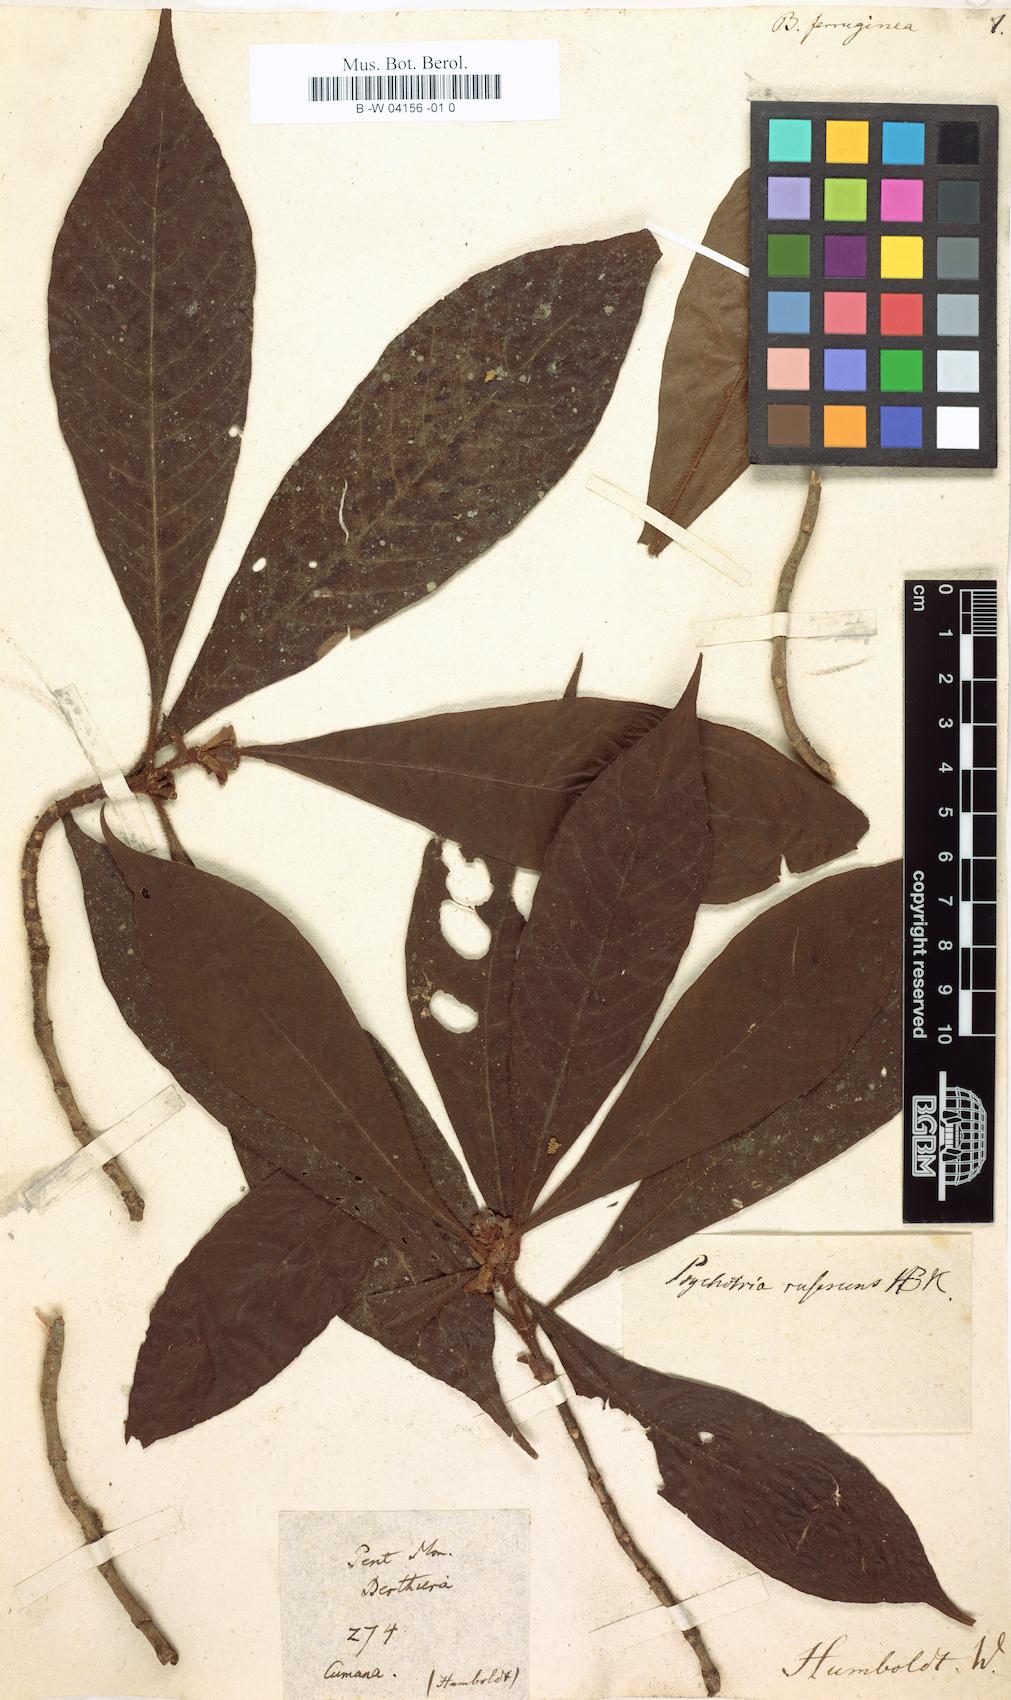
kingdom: Plantae
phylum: Tracheophyta
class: Magnoliopsida
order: Gentianales
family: Rubiaceae
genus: Psychotria
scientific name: Psychotria nervosa
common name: Bastard cankerberry
